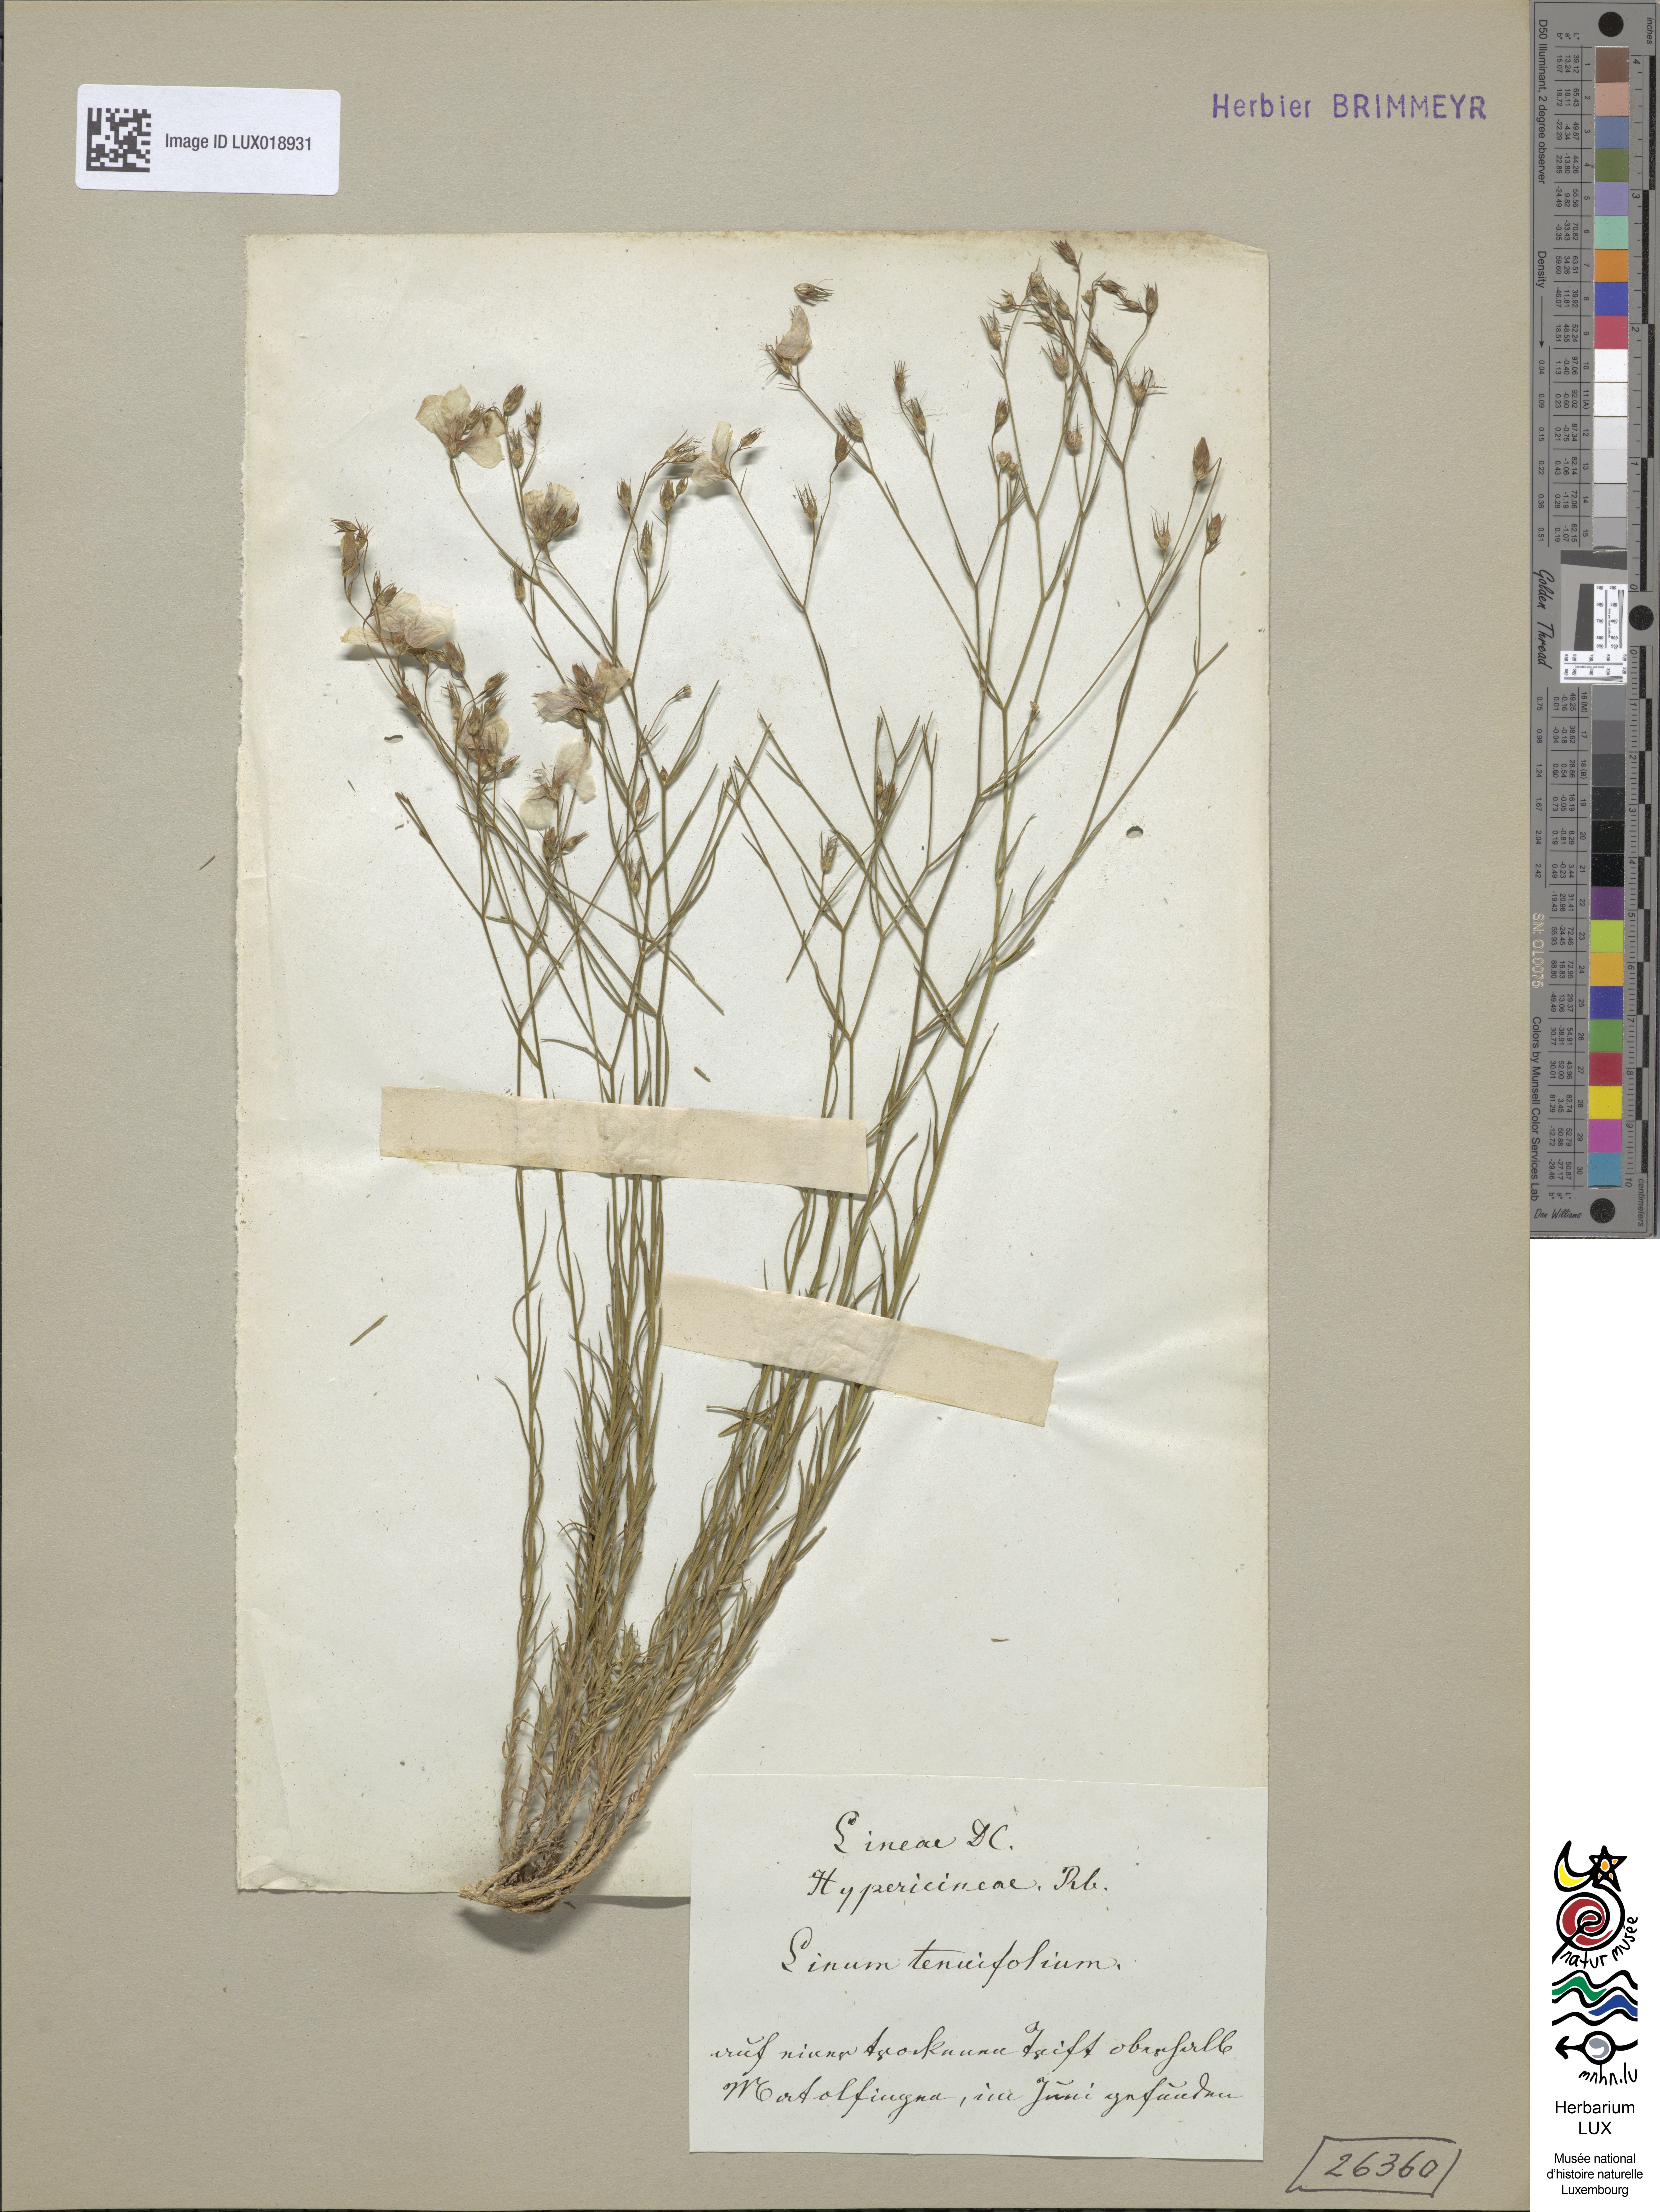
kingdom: Plantae
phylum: Tracheophyta
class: Magnoliopsida
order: Malpighiales
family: Linaceae
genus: Linum
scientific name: Linum tenuifolium
